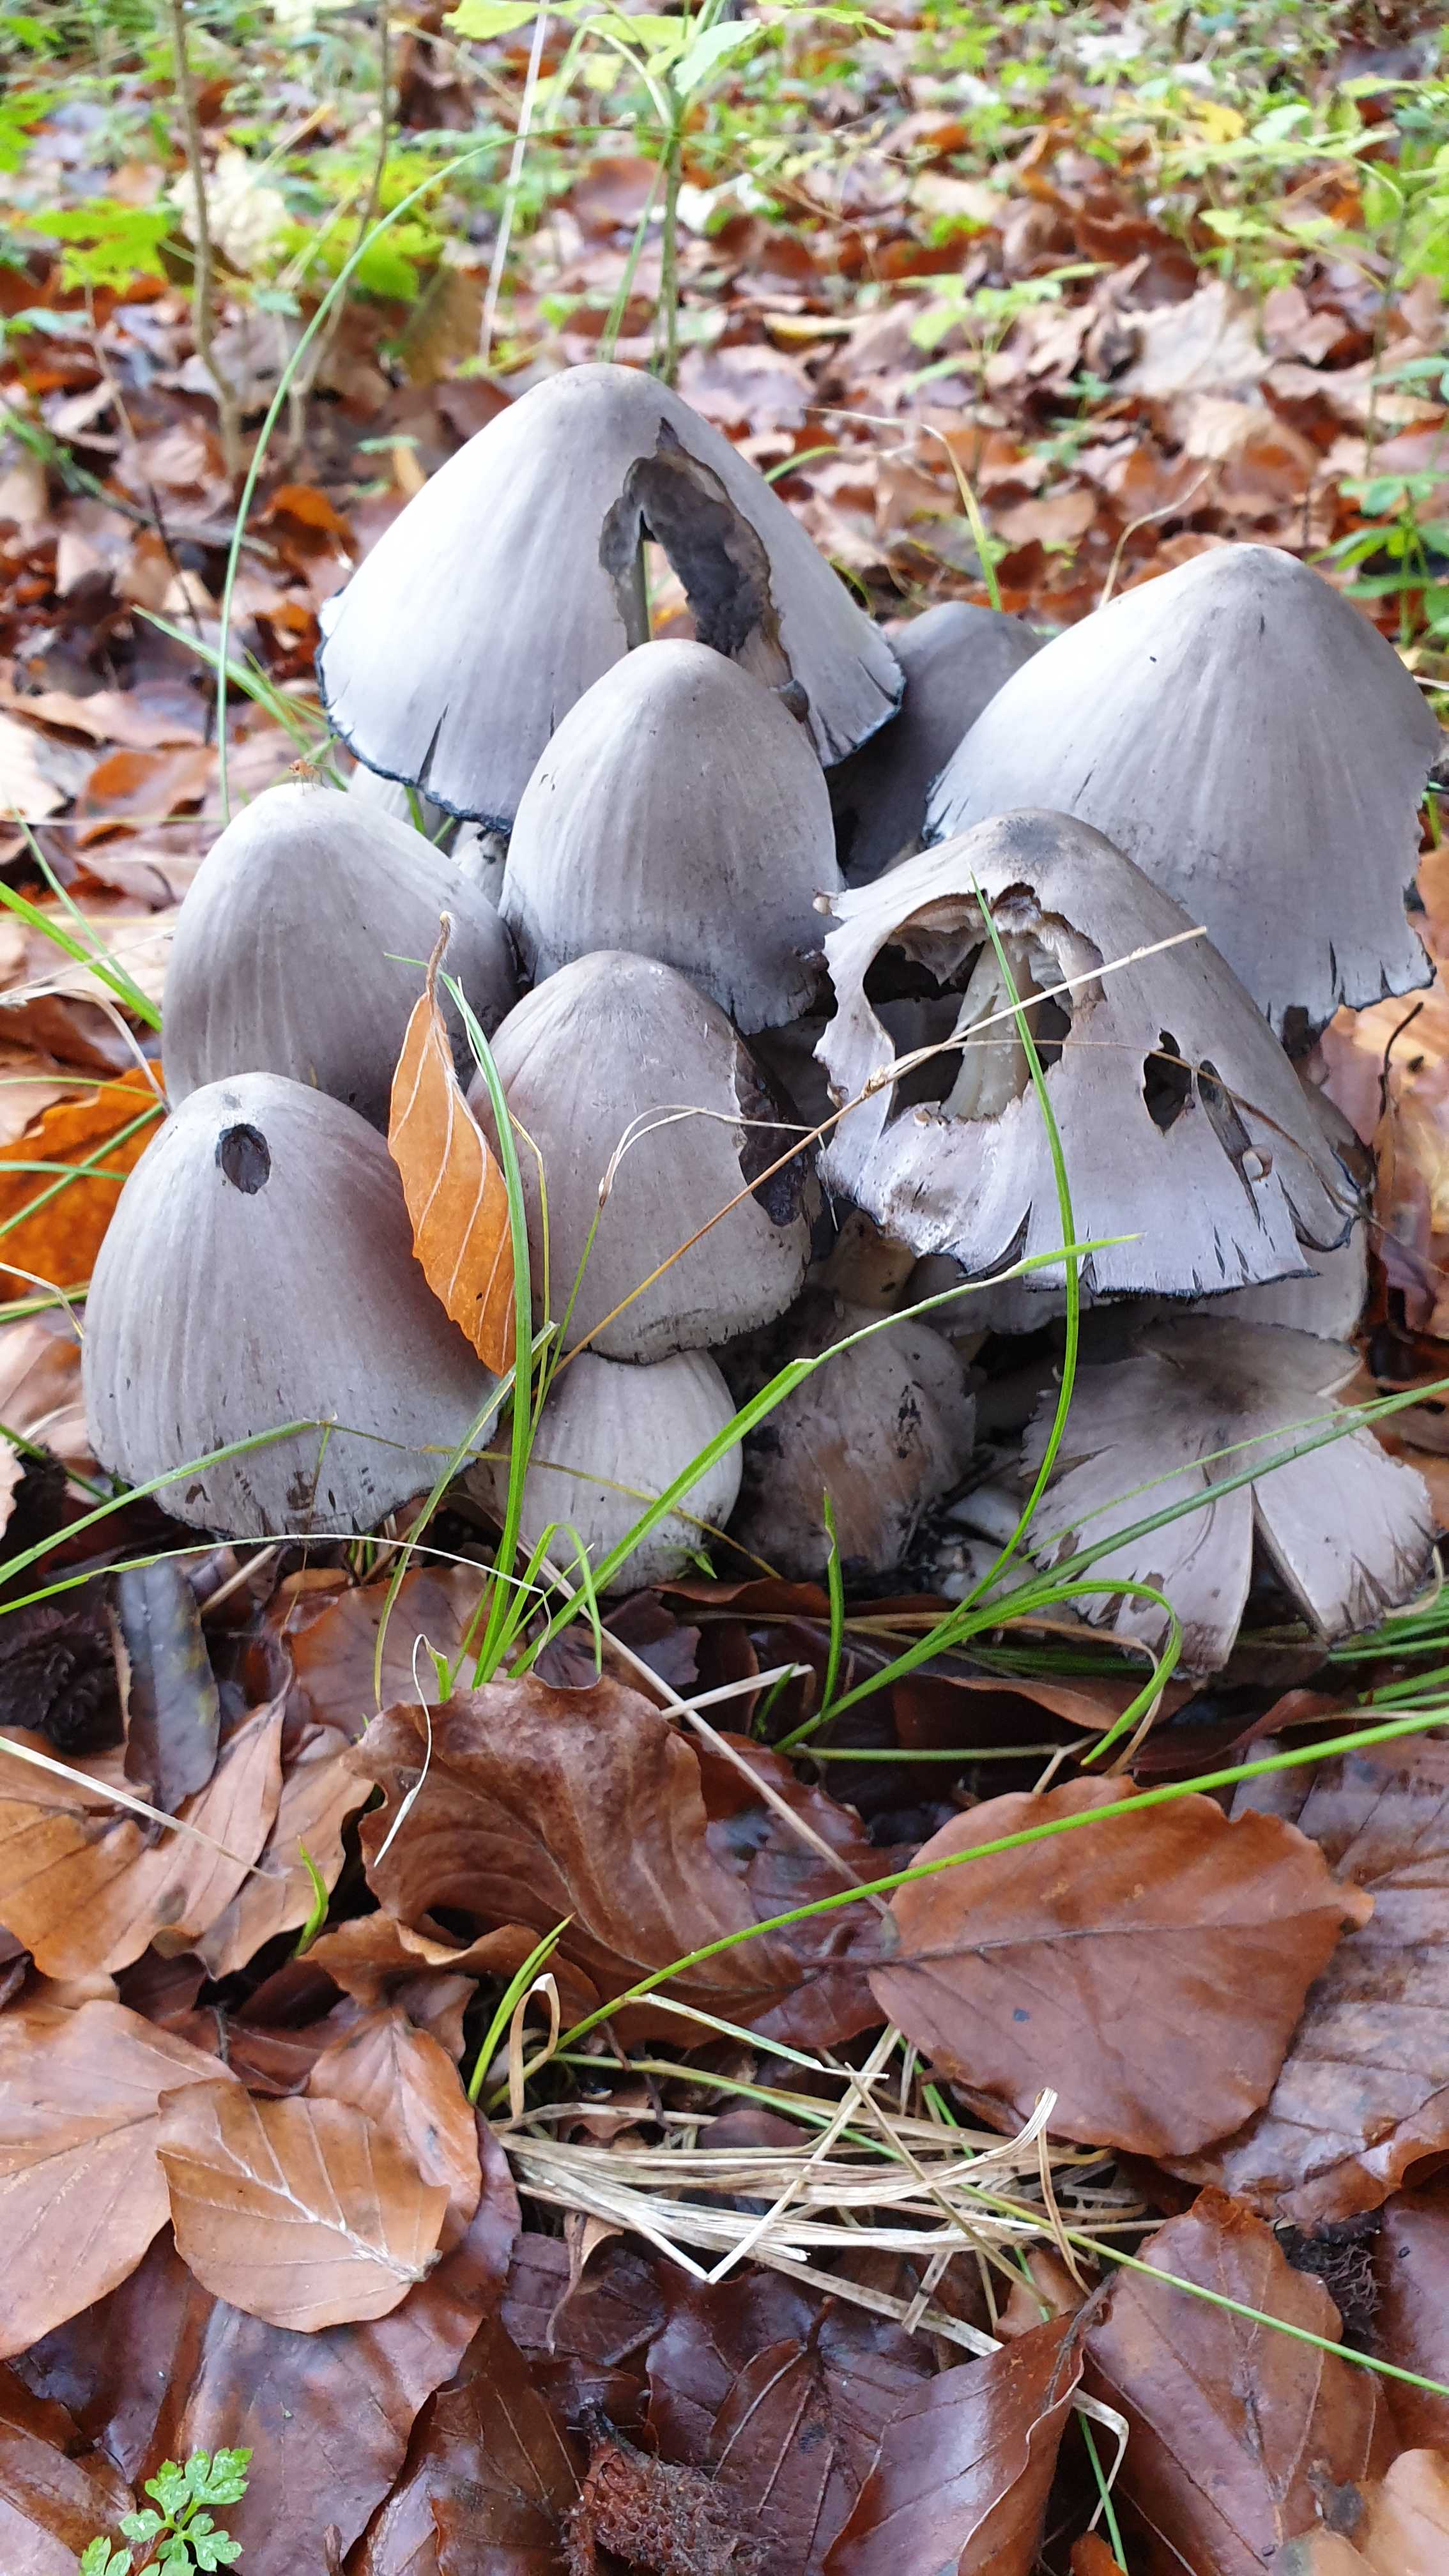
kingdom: Fungi
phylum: Basidiomycota
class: Agaricomycetes
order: Agaricales
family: Psathyrellaceae
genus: Coprinopsis
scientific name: Coprinopsis atramentaria
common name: almindelig blækhat
